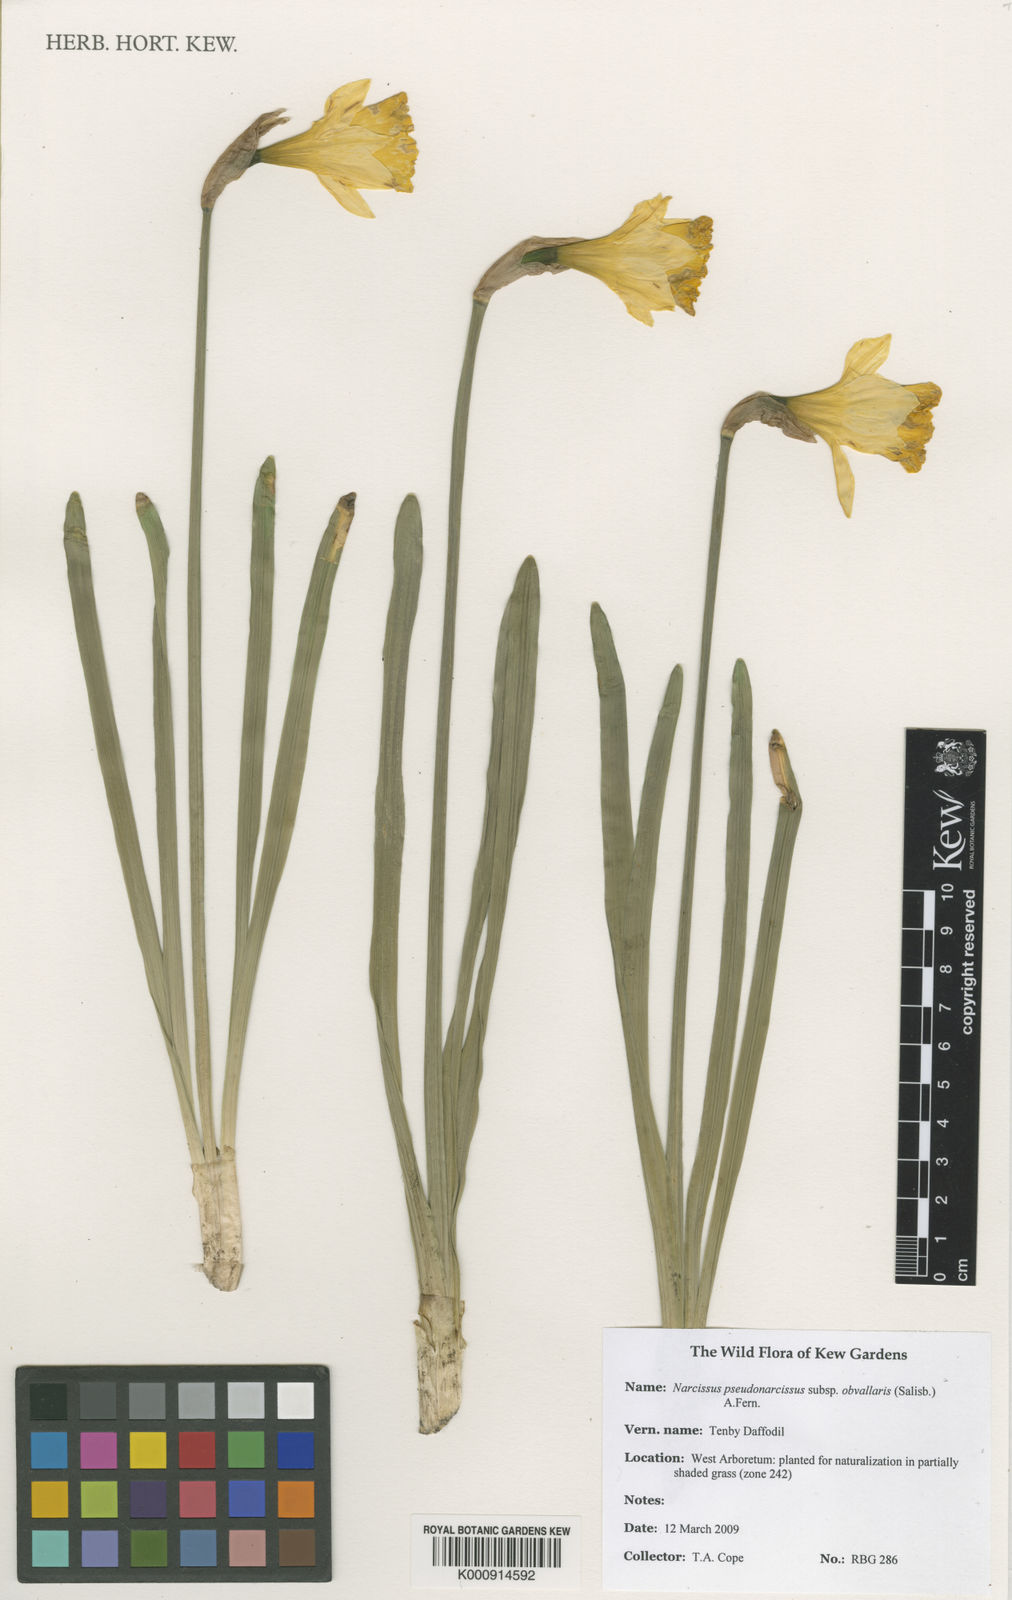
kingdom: Plantae
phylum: Tracheophyta
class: Liliopsida
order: Asparagales
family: Amaryllidaceae
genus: Narcissus
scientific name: Narcissus
